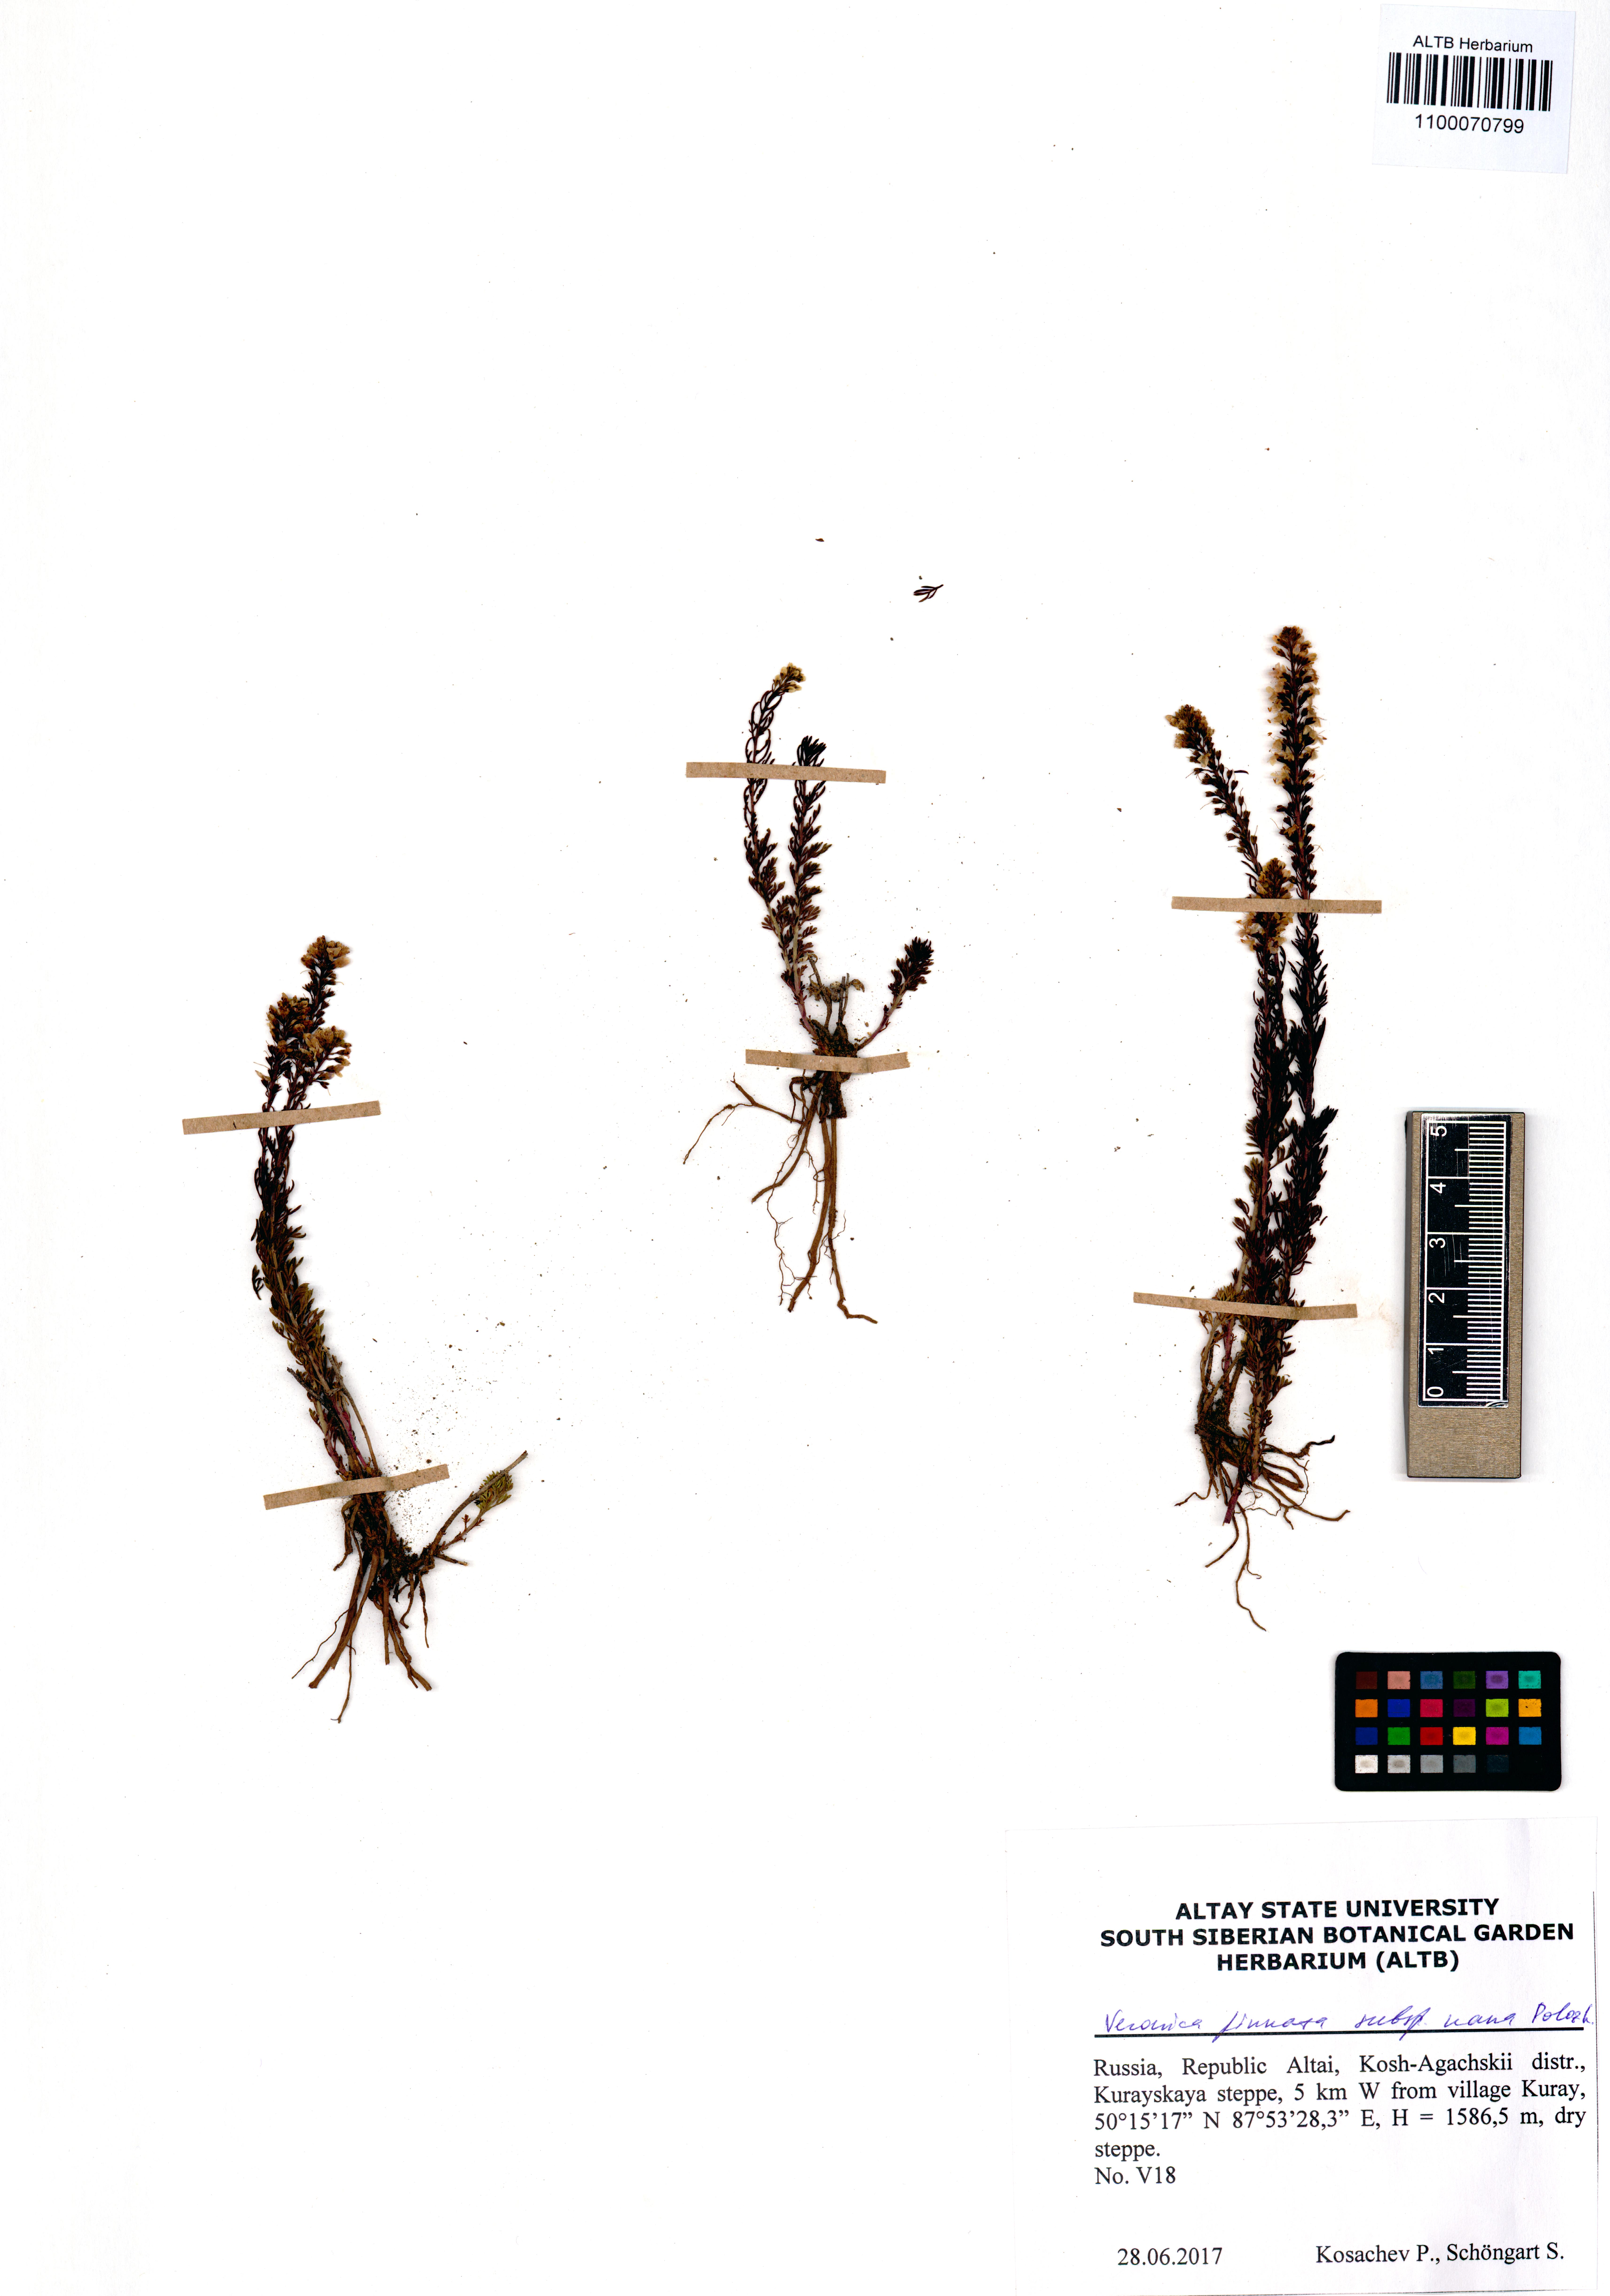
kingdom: Plantae
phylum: Tracheophyta
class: Magnoliopsida
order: Lamiales
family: Plantaginaceae
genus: Veronica
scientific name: Veronica pinnata
